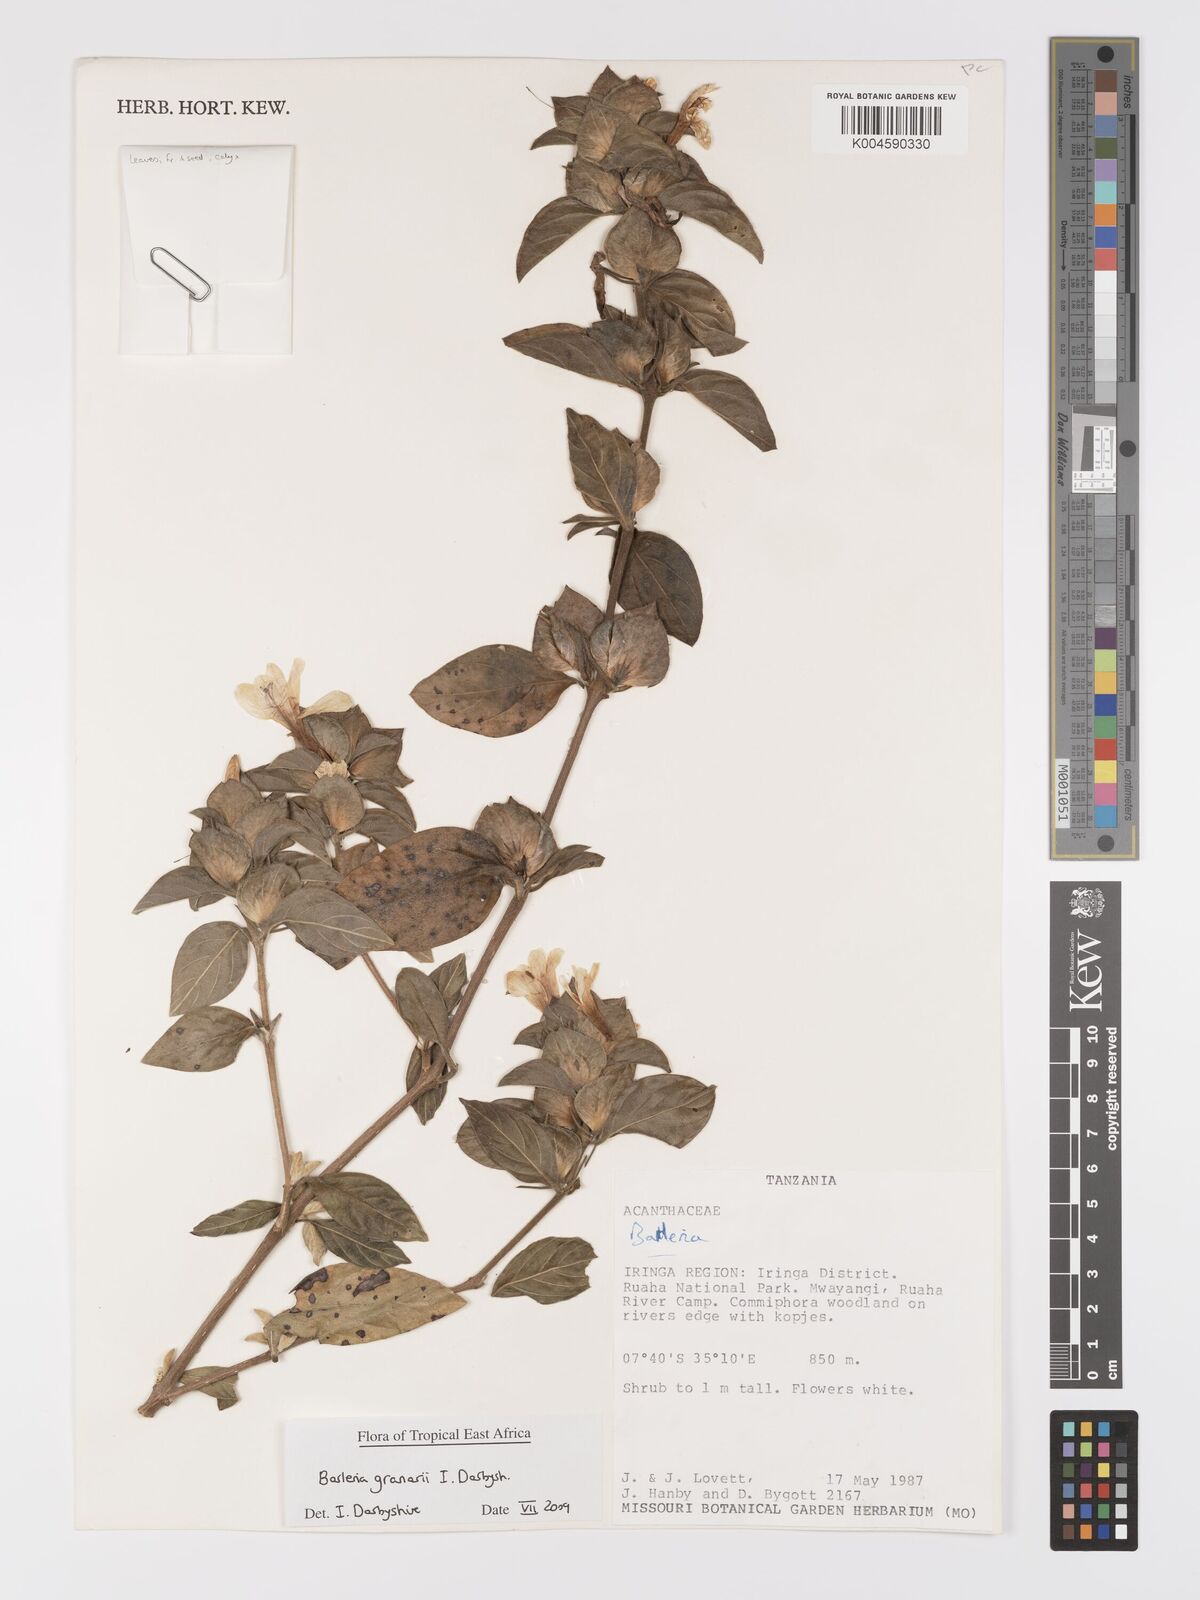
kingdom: Plantae
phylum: Tracheophyta
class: Magnoliopsida
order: Lamiales
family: Acanthaceae
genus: Barleria
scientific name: Barleria granarii
